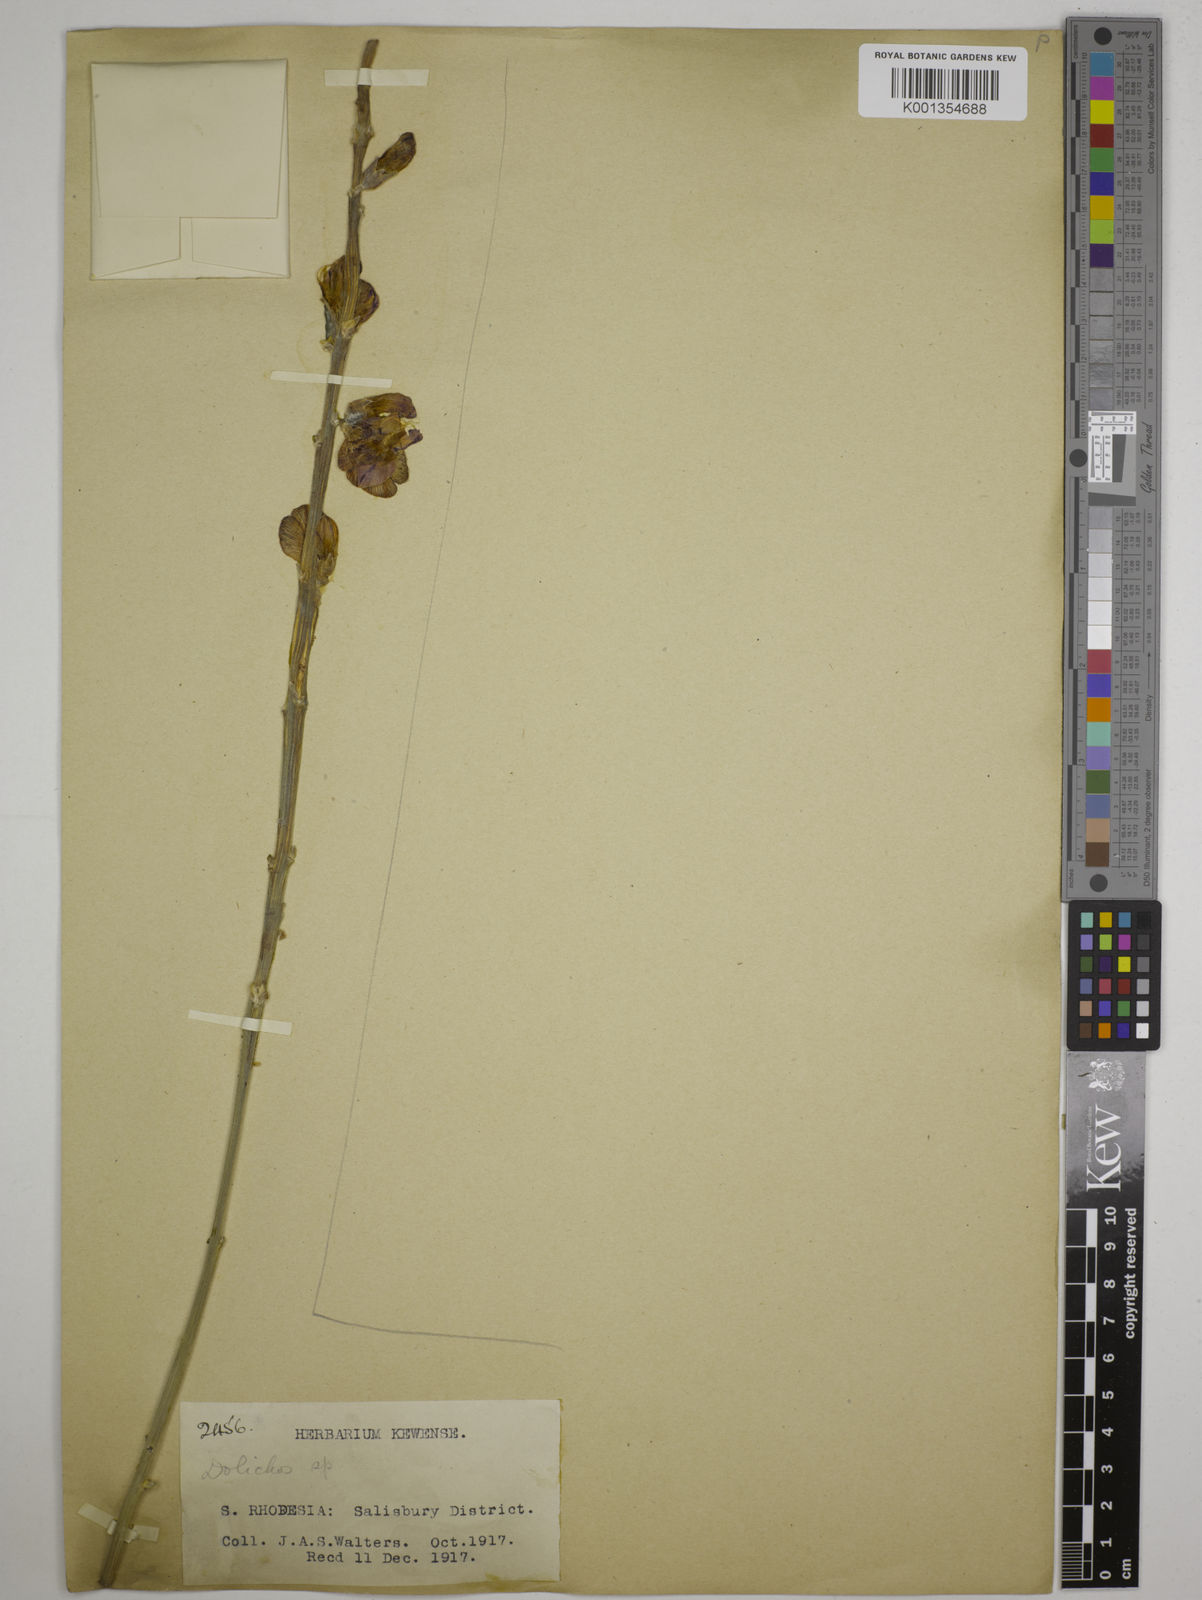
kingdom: Plantae
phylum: Tracheophyta
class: Magnoliopsida
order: Fabales
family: Fabaceae
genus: Dolichos
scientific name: Dolichos kilimandscharicus
